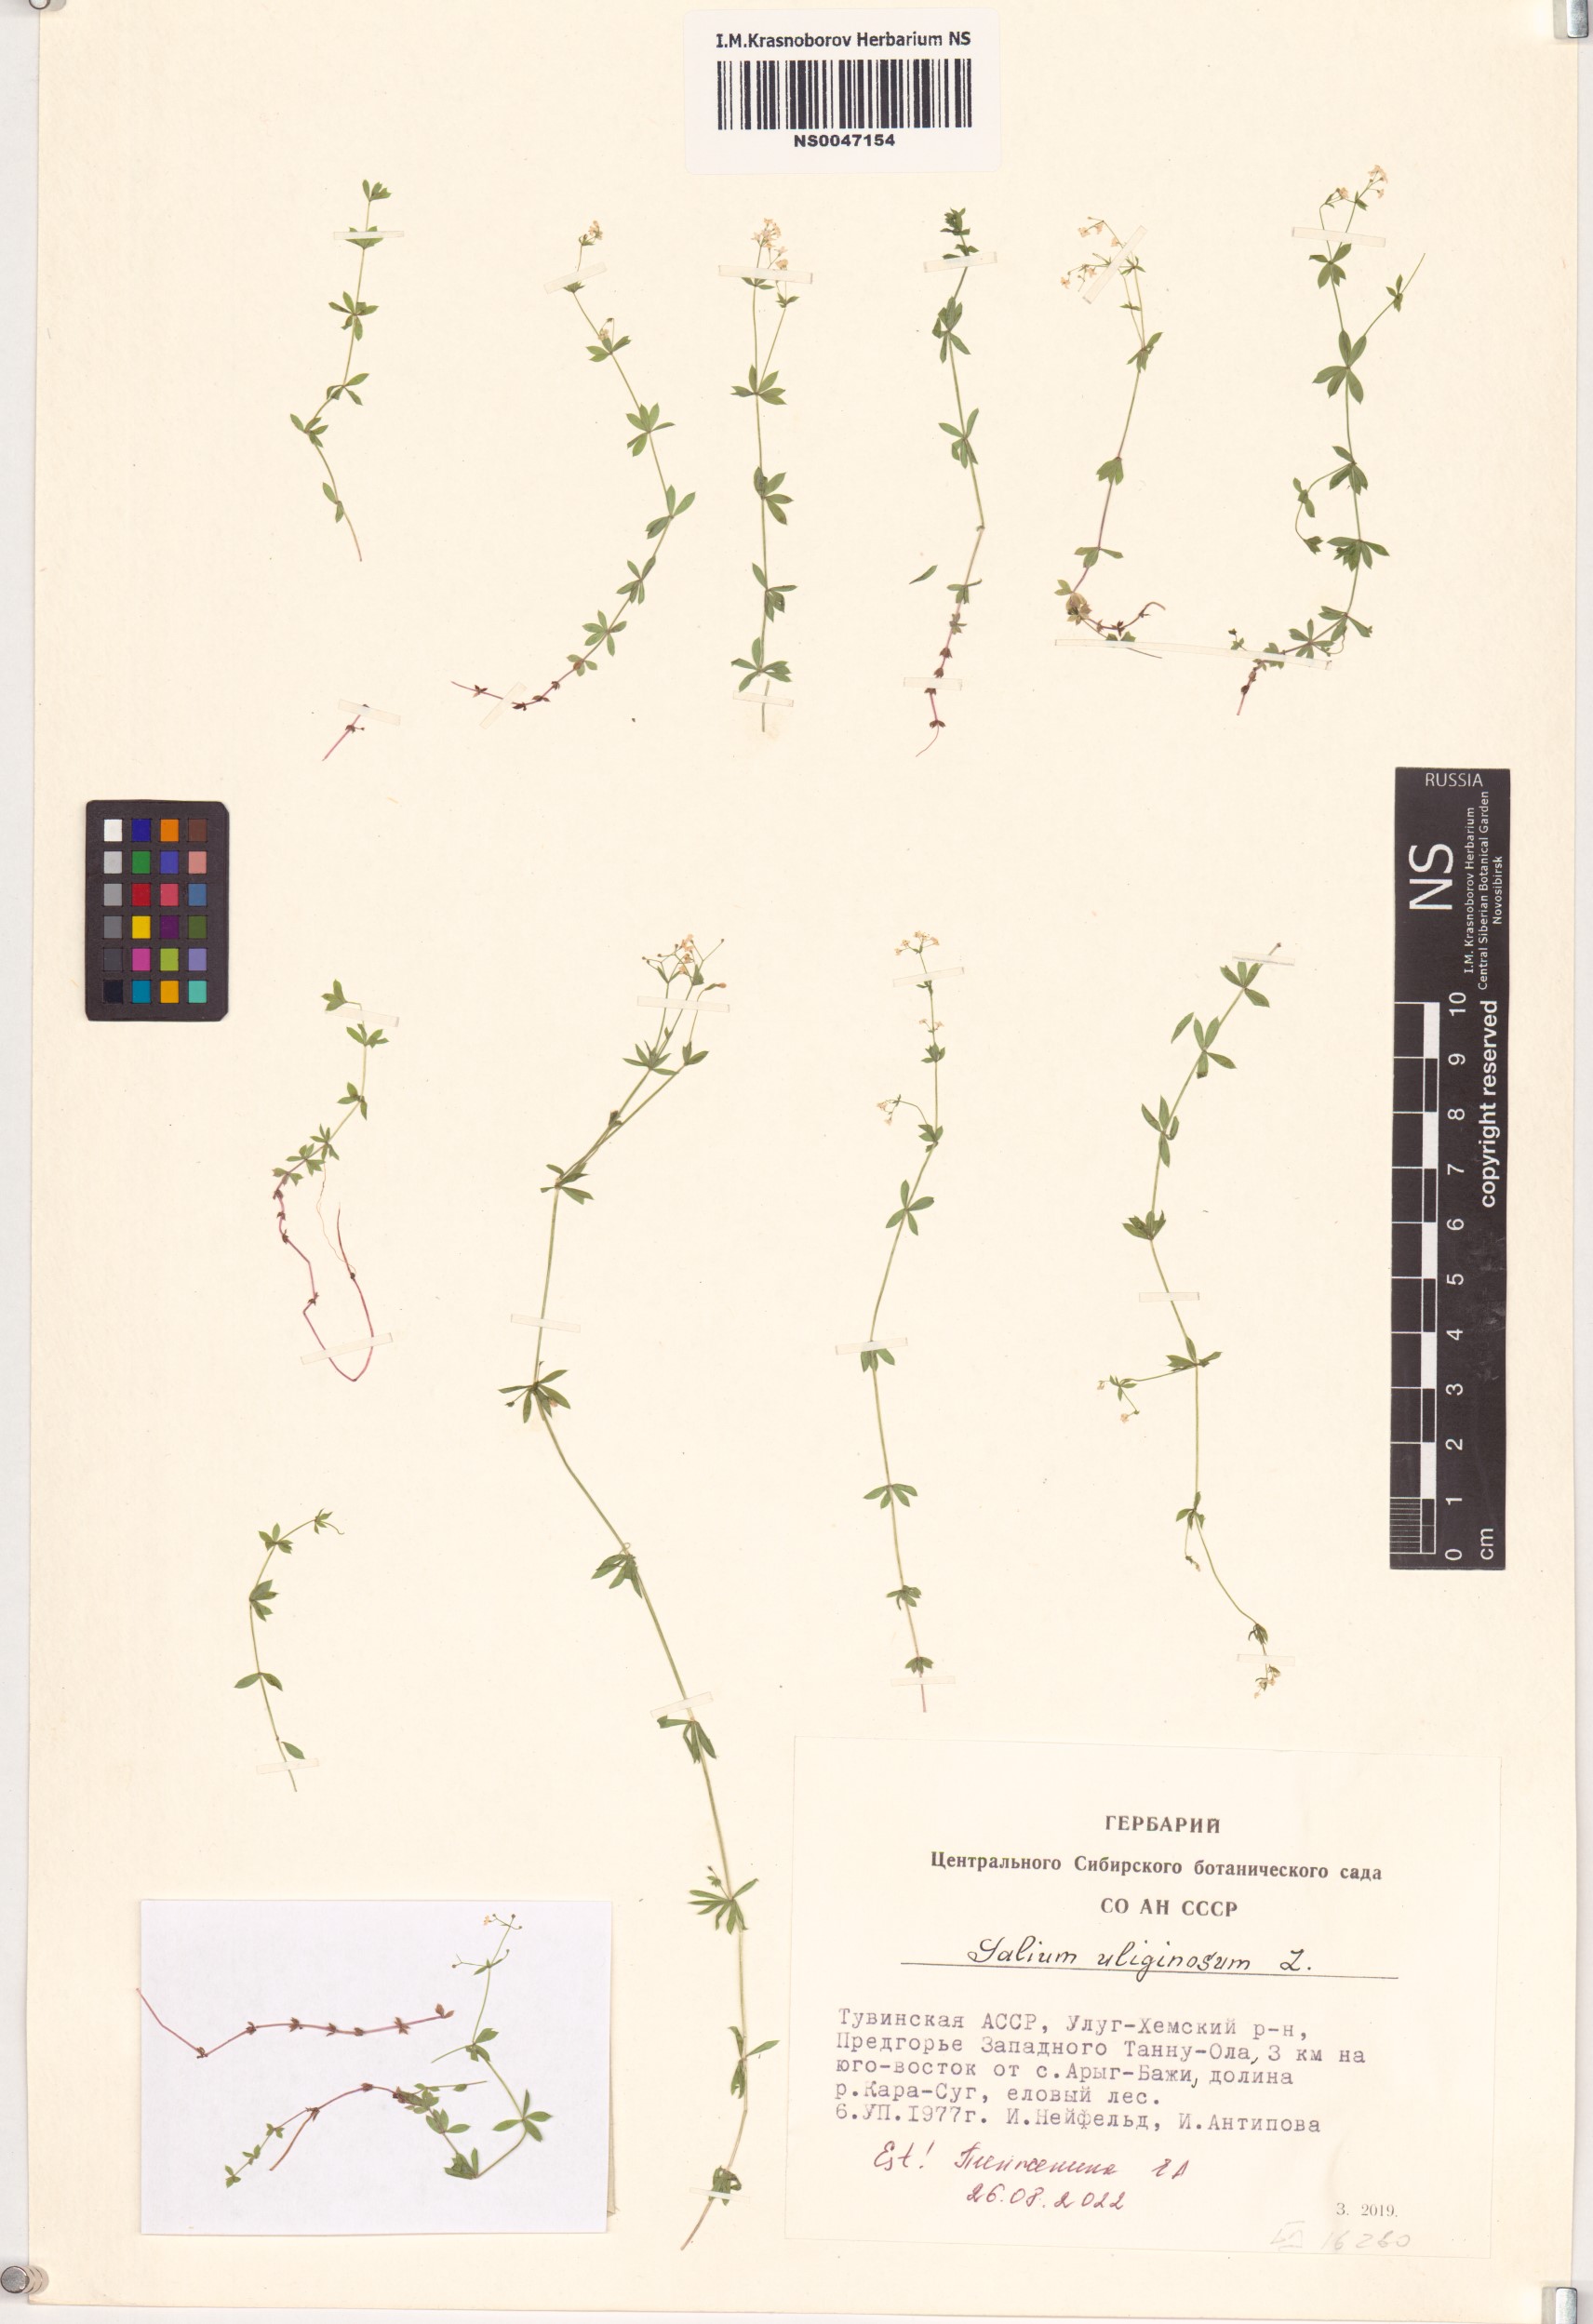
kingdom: Plantae
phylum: Tracheophyta
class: Magnoliopsida
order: Gentianales
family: Rubiaceae
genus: Galium
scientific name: Galium uliginosum
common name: Fen bedstraw
